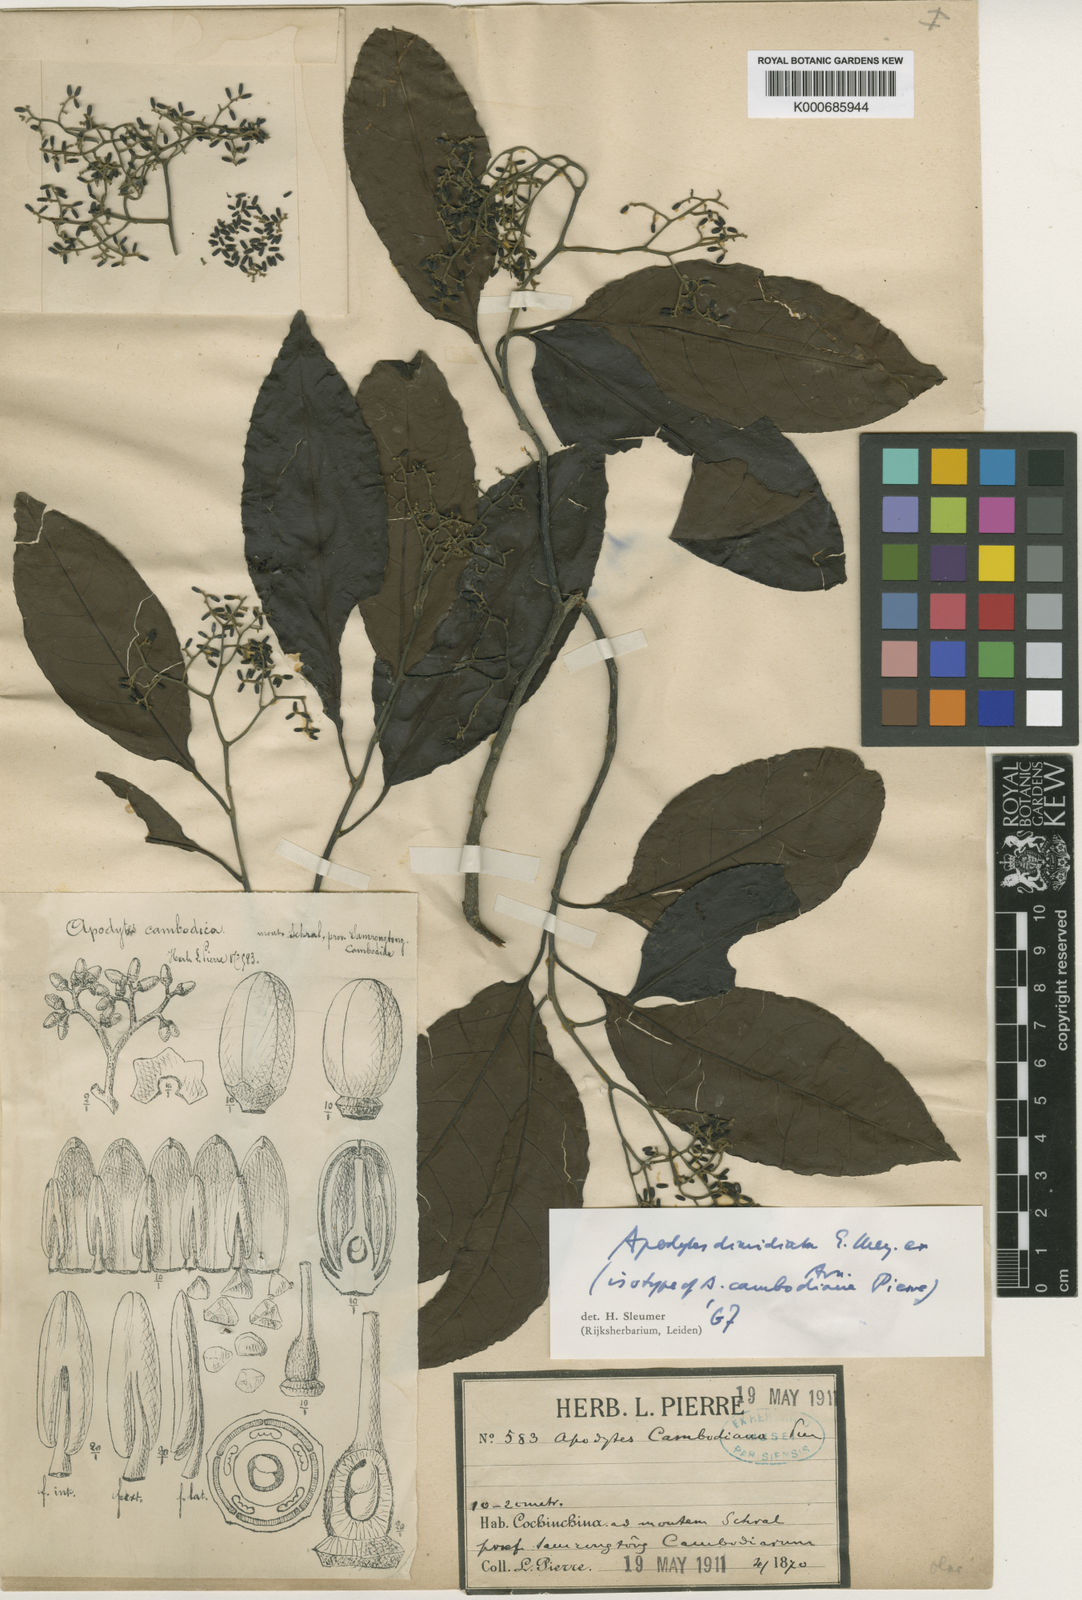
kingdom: Plantae
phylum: Tracheophyta
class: Magnoliopsida
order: Metteniusales
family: Metteniusaceae
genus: Apodytes
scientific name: Apodytes dimidiata
